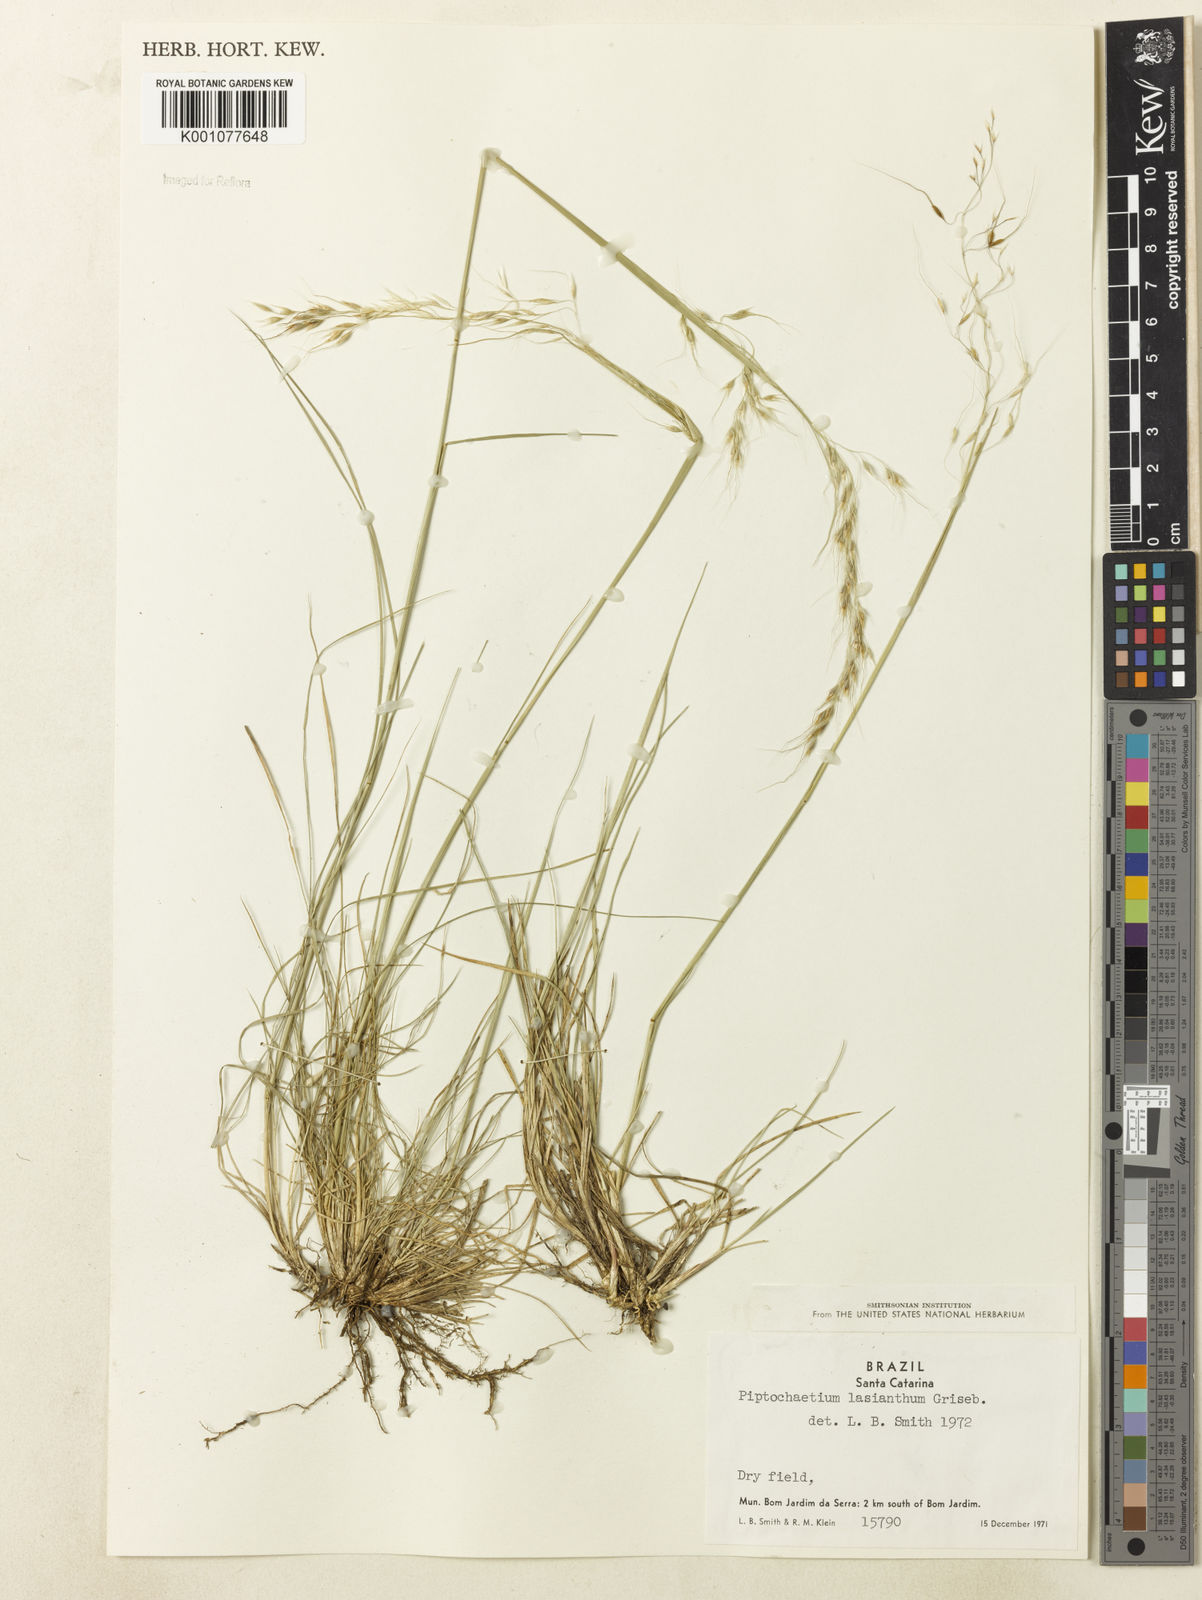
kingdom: Plantae
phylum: Tracheophyta
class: Liliopsida
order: Poales
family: Poaceae
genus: Piptochaetium
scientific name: Piptochaetium lasianthum
